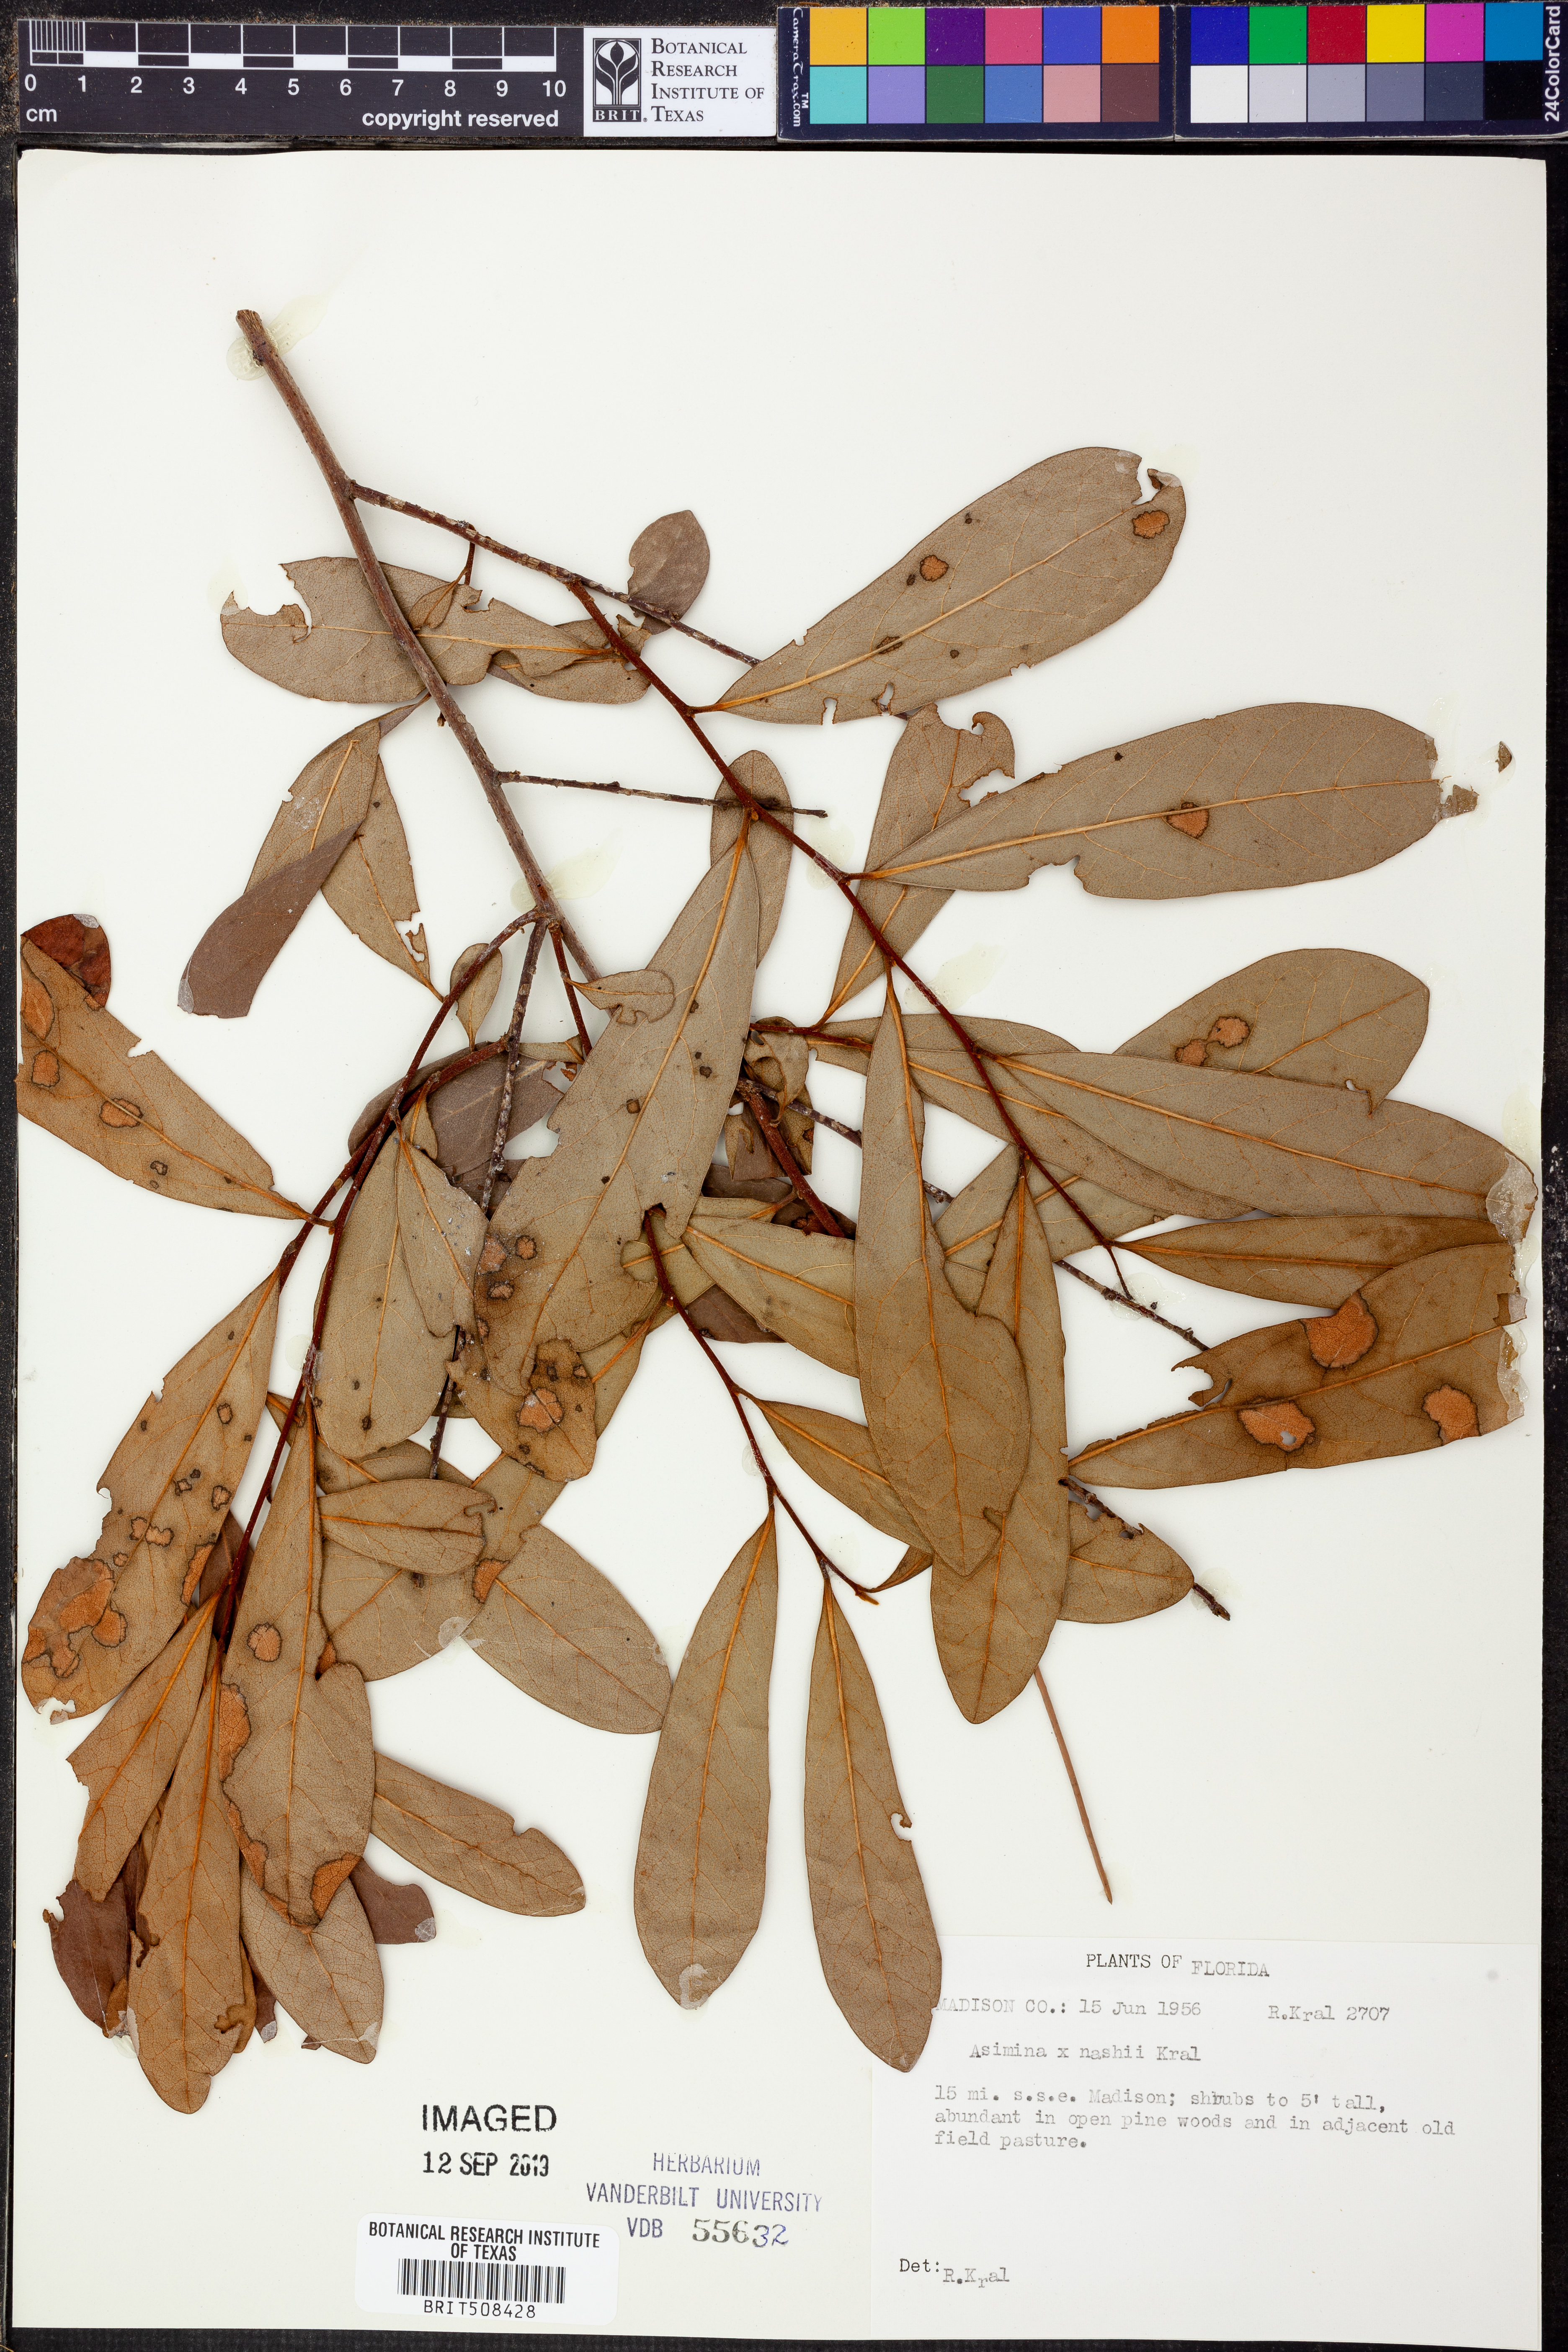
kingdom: Plantae
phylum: Tracheophyta
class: Magnoliopsida
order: Magnoliales
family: Annonaceae
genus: Asimina
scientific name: Asimina
